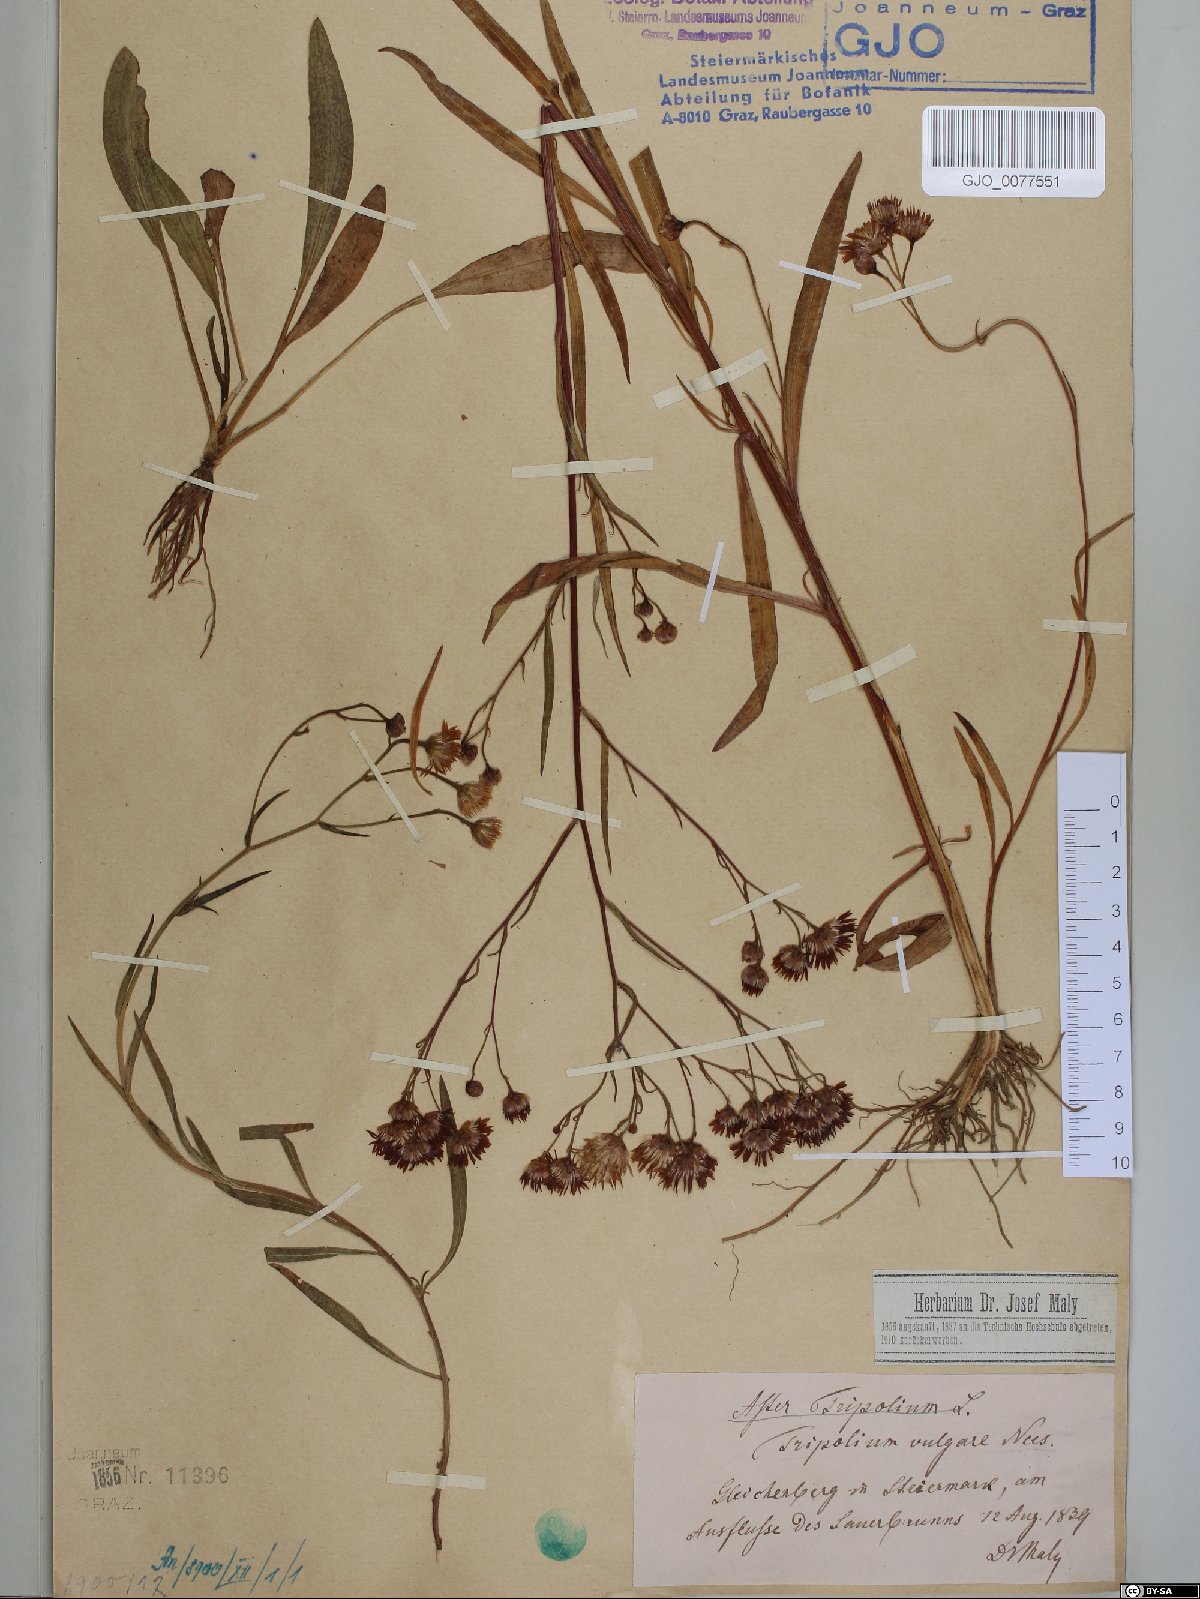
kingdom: Plantae
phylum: Tracheophyta
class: Magnoliopsida
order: Asterales
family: Asteraceae
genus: Tripolium
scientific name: Tripolium pannonicum
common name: Sea aster
